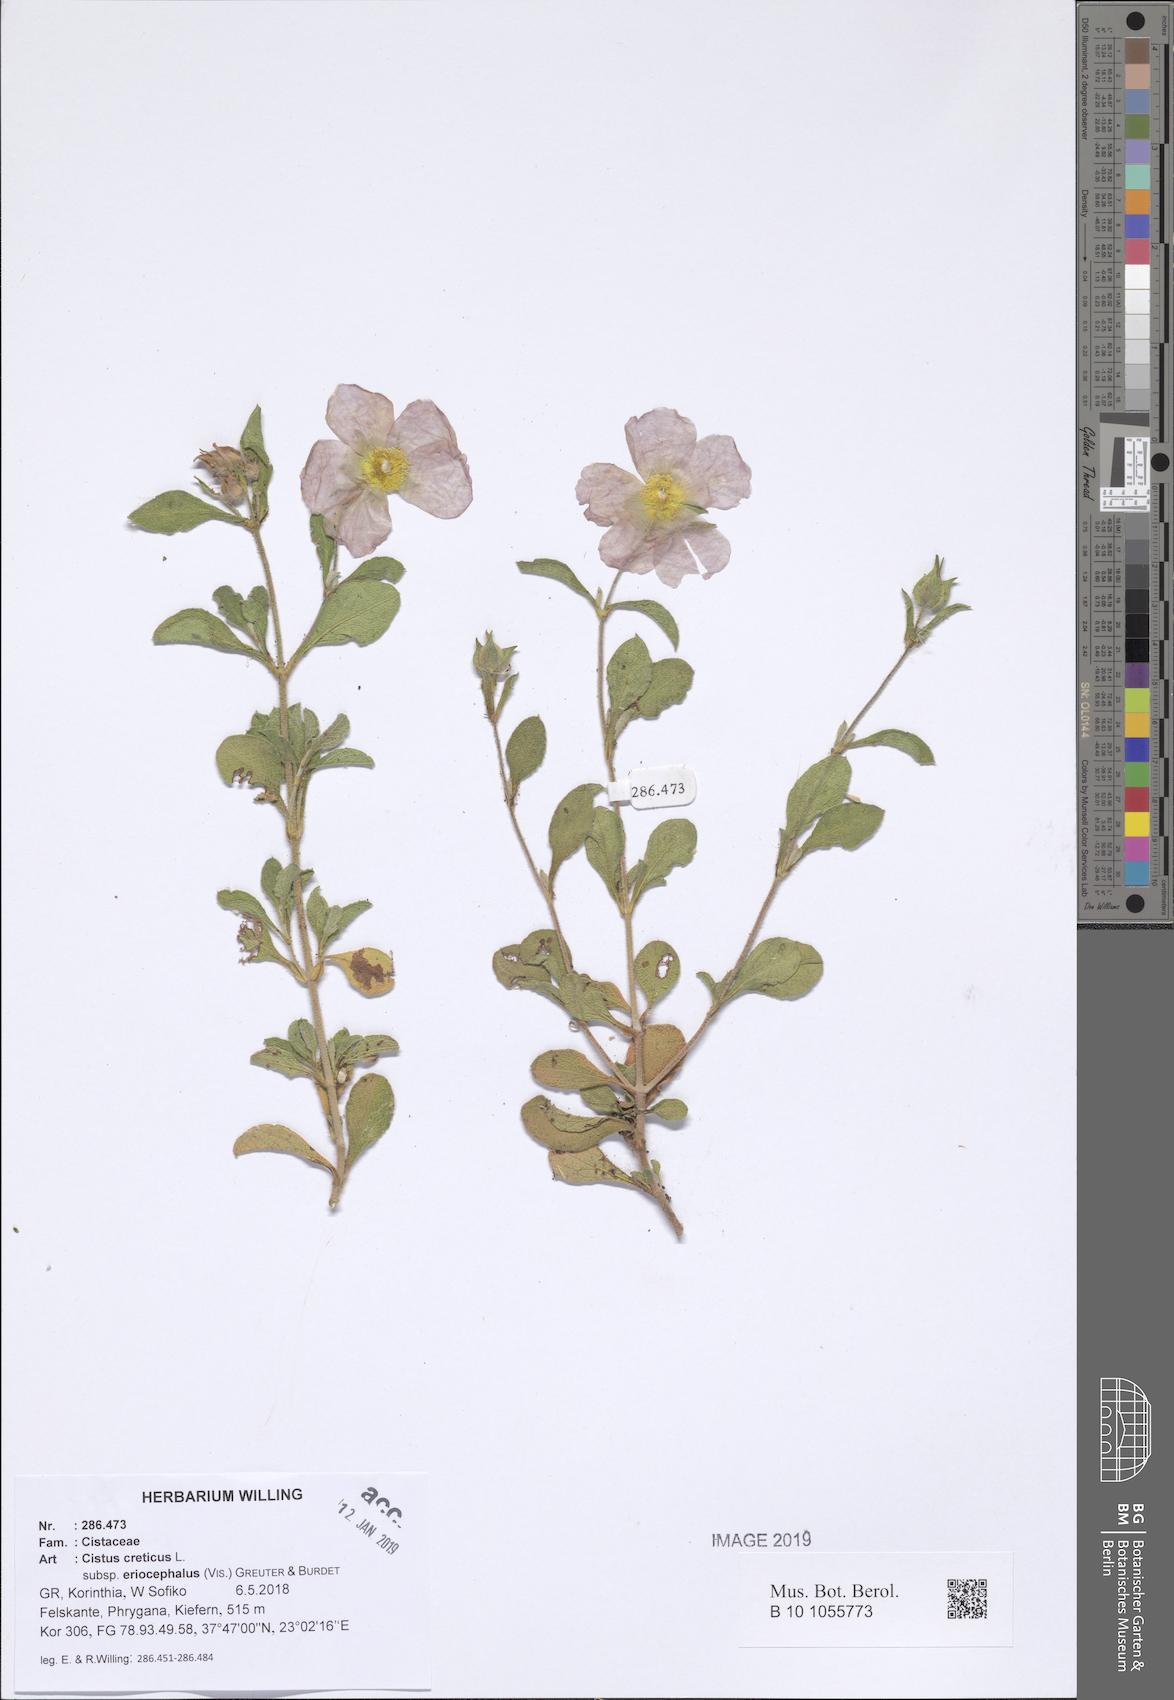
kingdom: Plantae
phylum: Tracheophyta
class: Magnoliopsida
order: Malvales
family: Cistaceae
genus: Cistus
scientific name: Cistus tauricus
